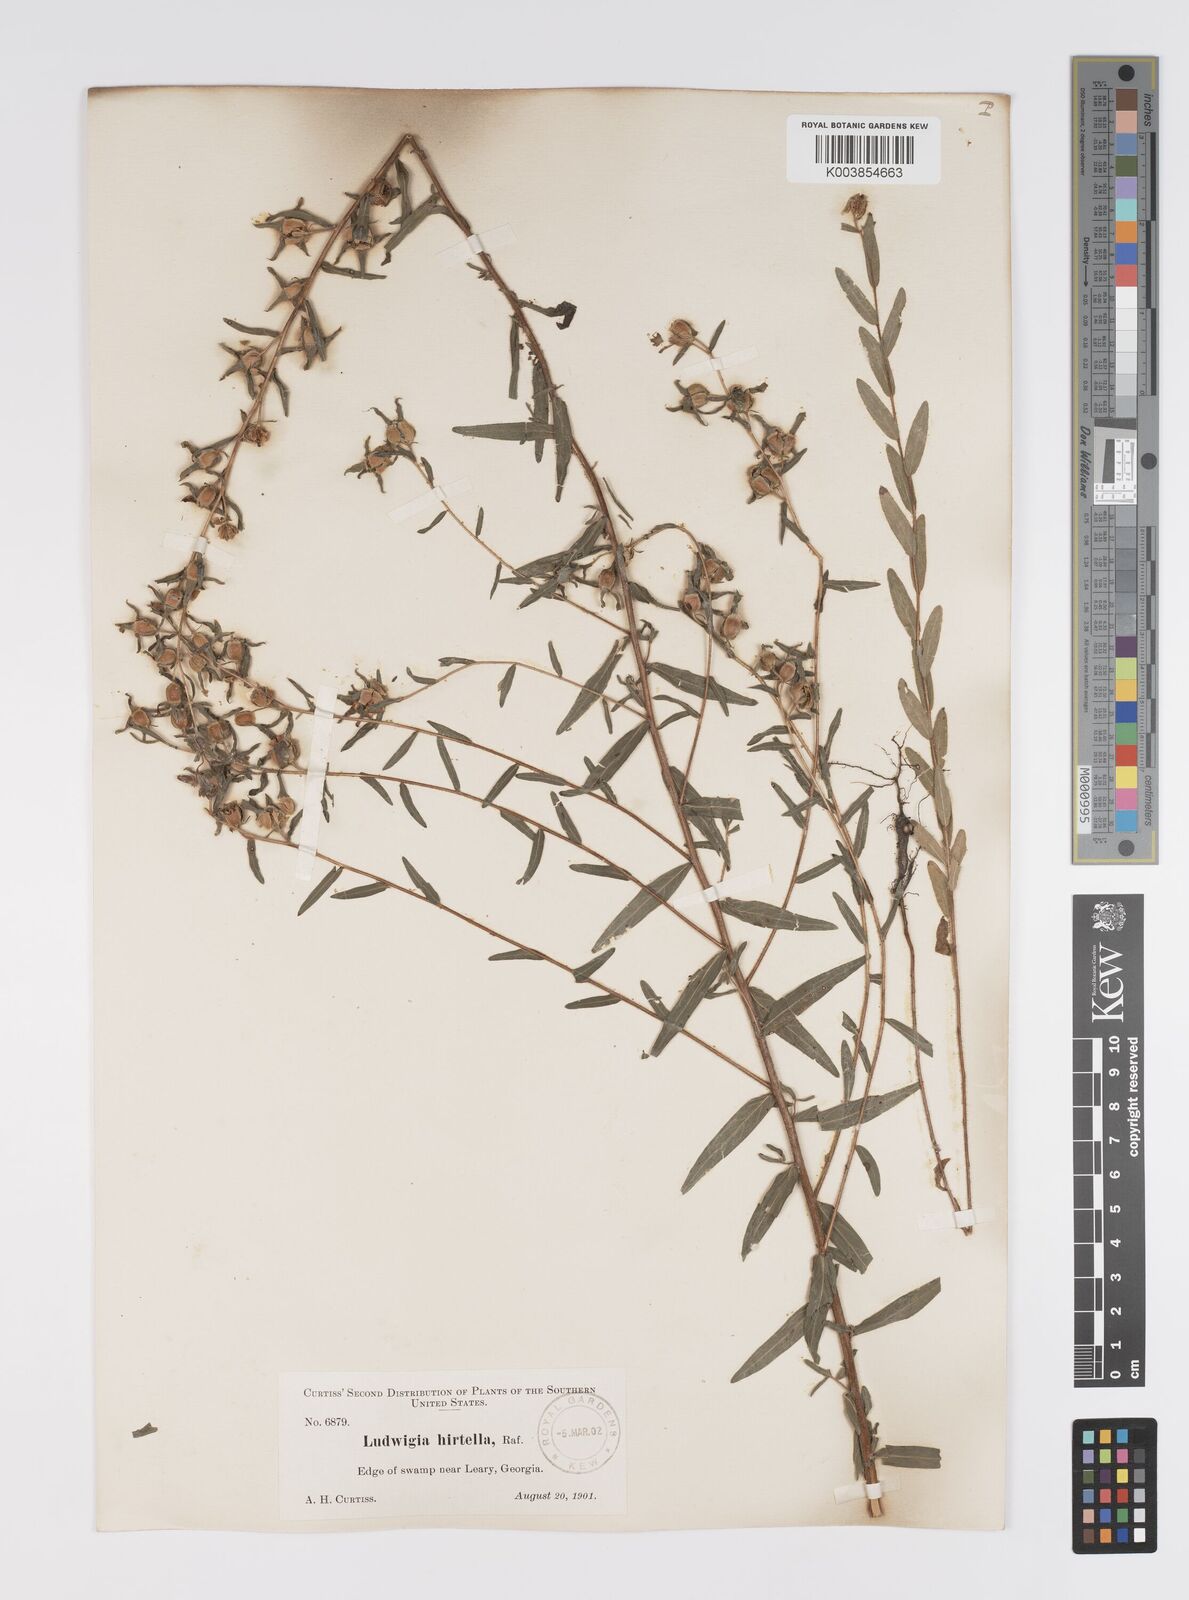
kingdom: Plantae
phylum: Tracheophyta
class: Magnoliopsida
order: Myrtales
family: Onagraceae
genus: Ludwigia
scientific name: Ludwigia hirtella
